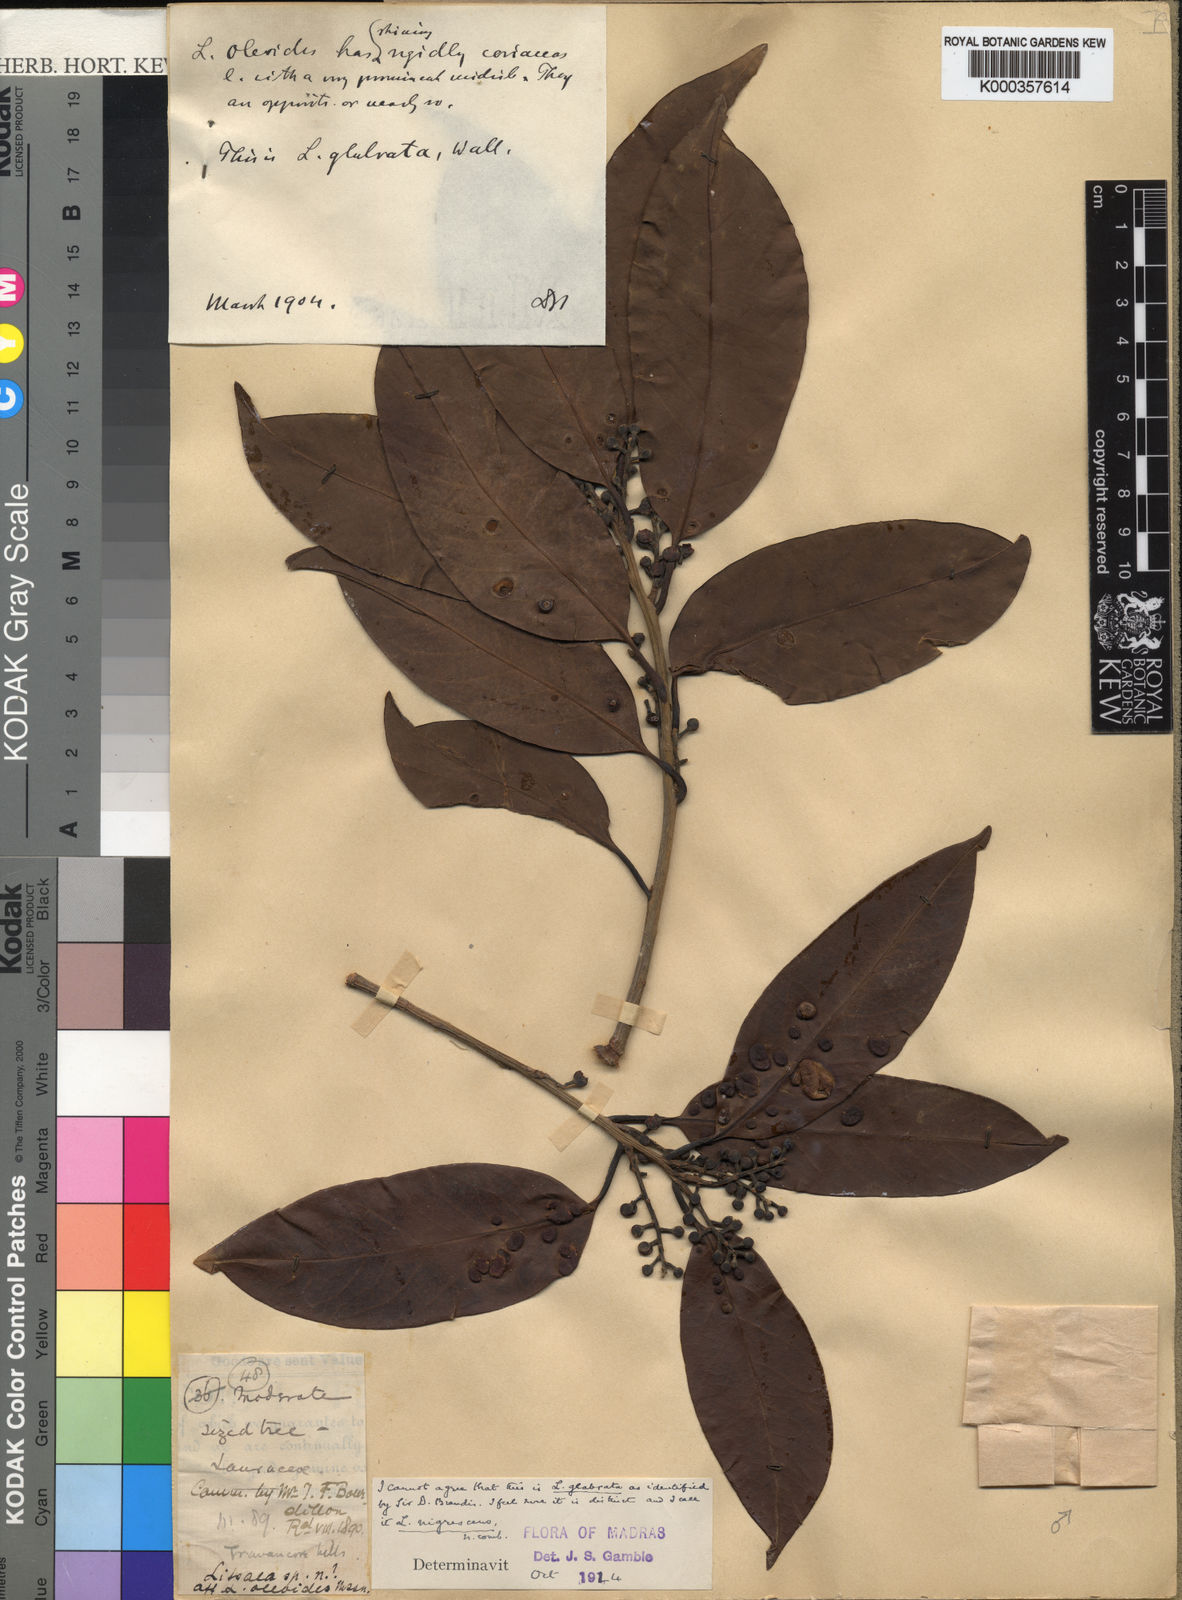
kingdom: Plantae
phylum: Tracheophyta
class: Magnoliopsida
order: Laurales
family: Lauraceae
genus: Litsea
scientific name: Litsea nigrescens
